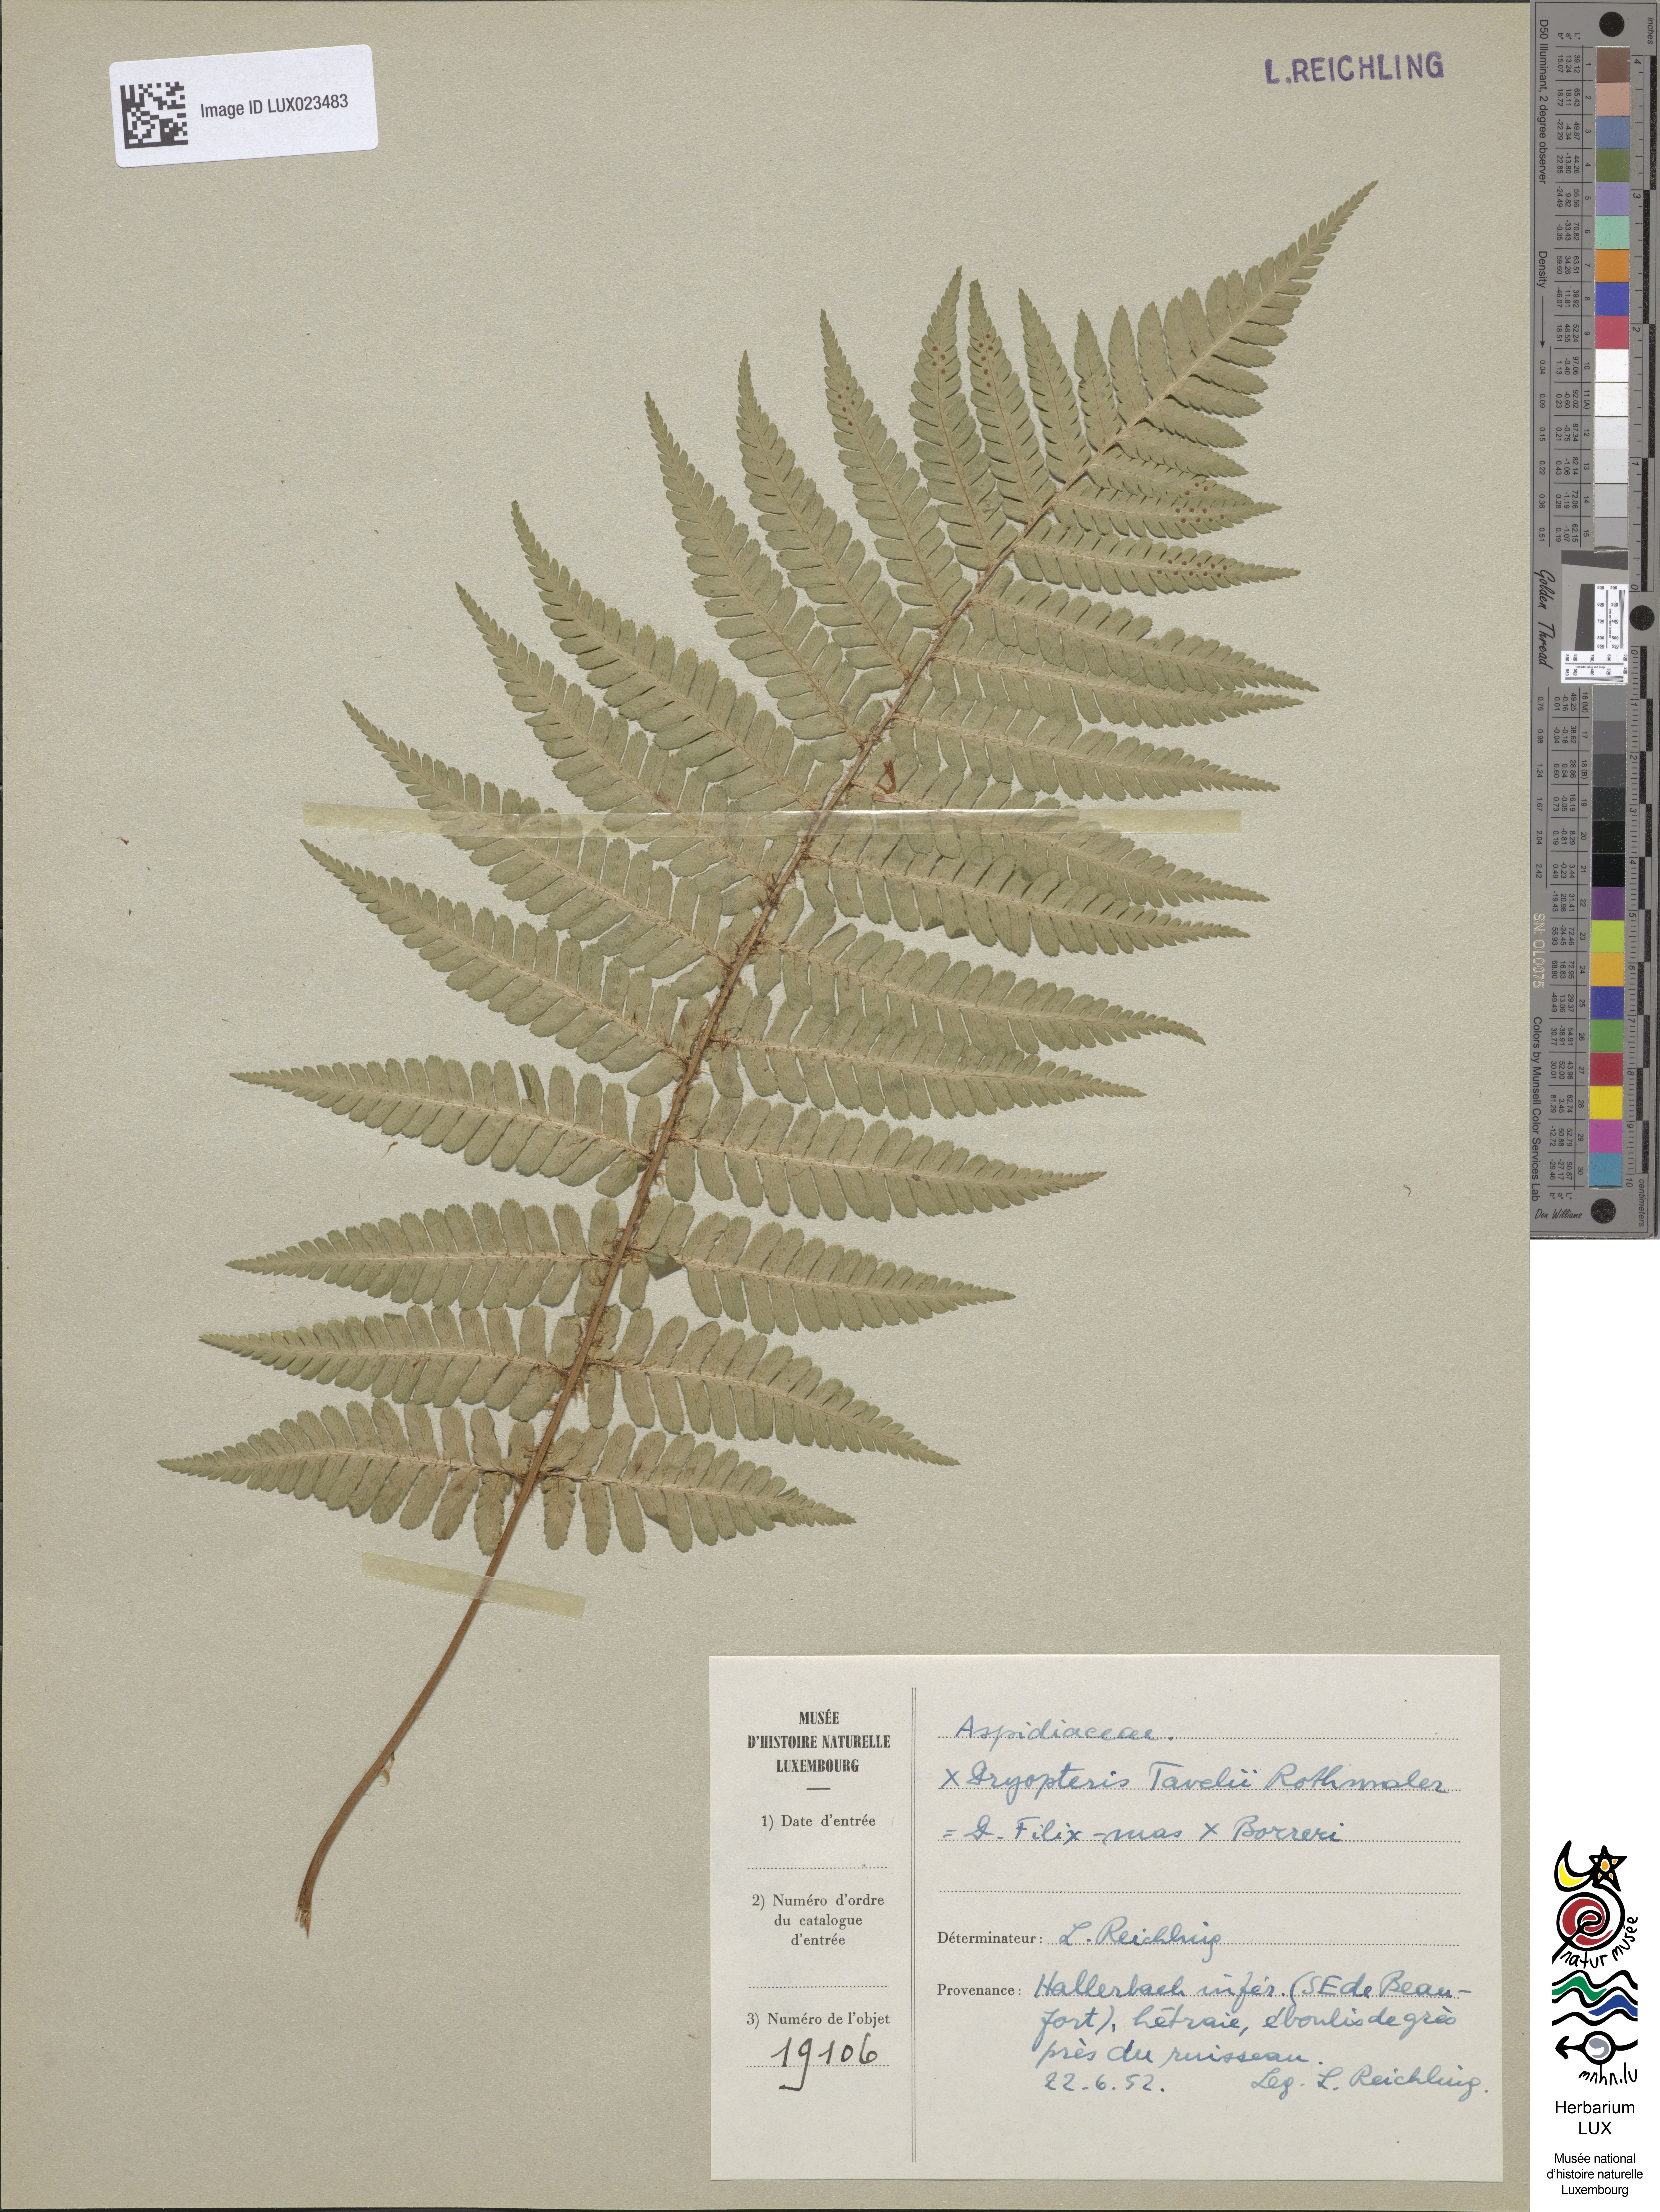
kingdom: Plantae
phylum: Tracheophyta
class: Polypodiopsida
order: Polypodiales
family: Dryopteridaceae
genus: Dryopteris
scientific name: Dryopteris borreri
